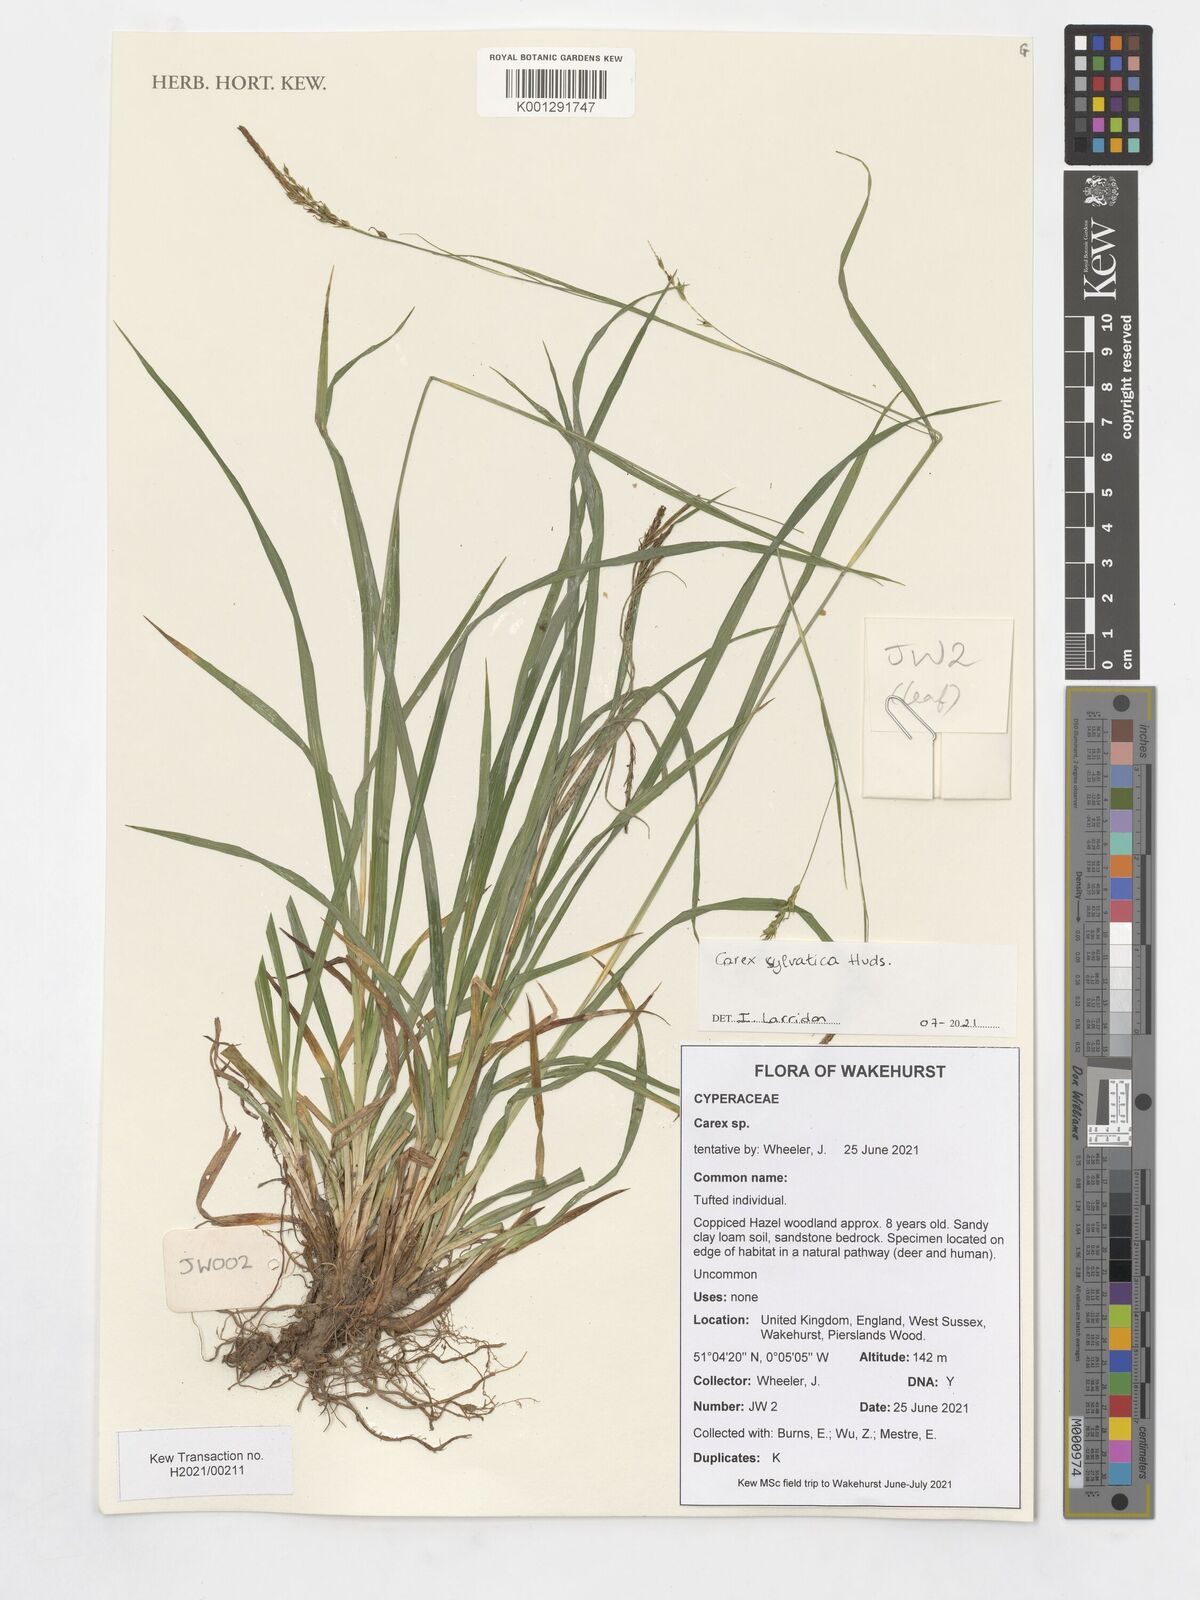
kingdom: Plantae
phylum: Tracheophyta
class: Liliopsida
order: Poales
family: Cyperaceae
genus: Carex
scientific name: Carex sylvatica
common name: Wood-sedge
